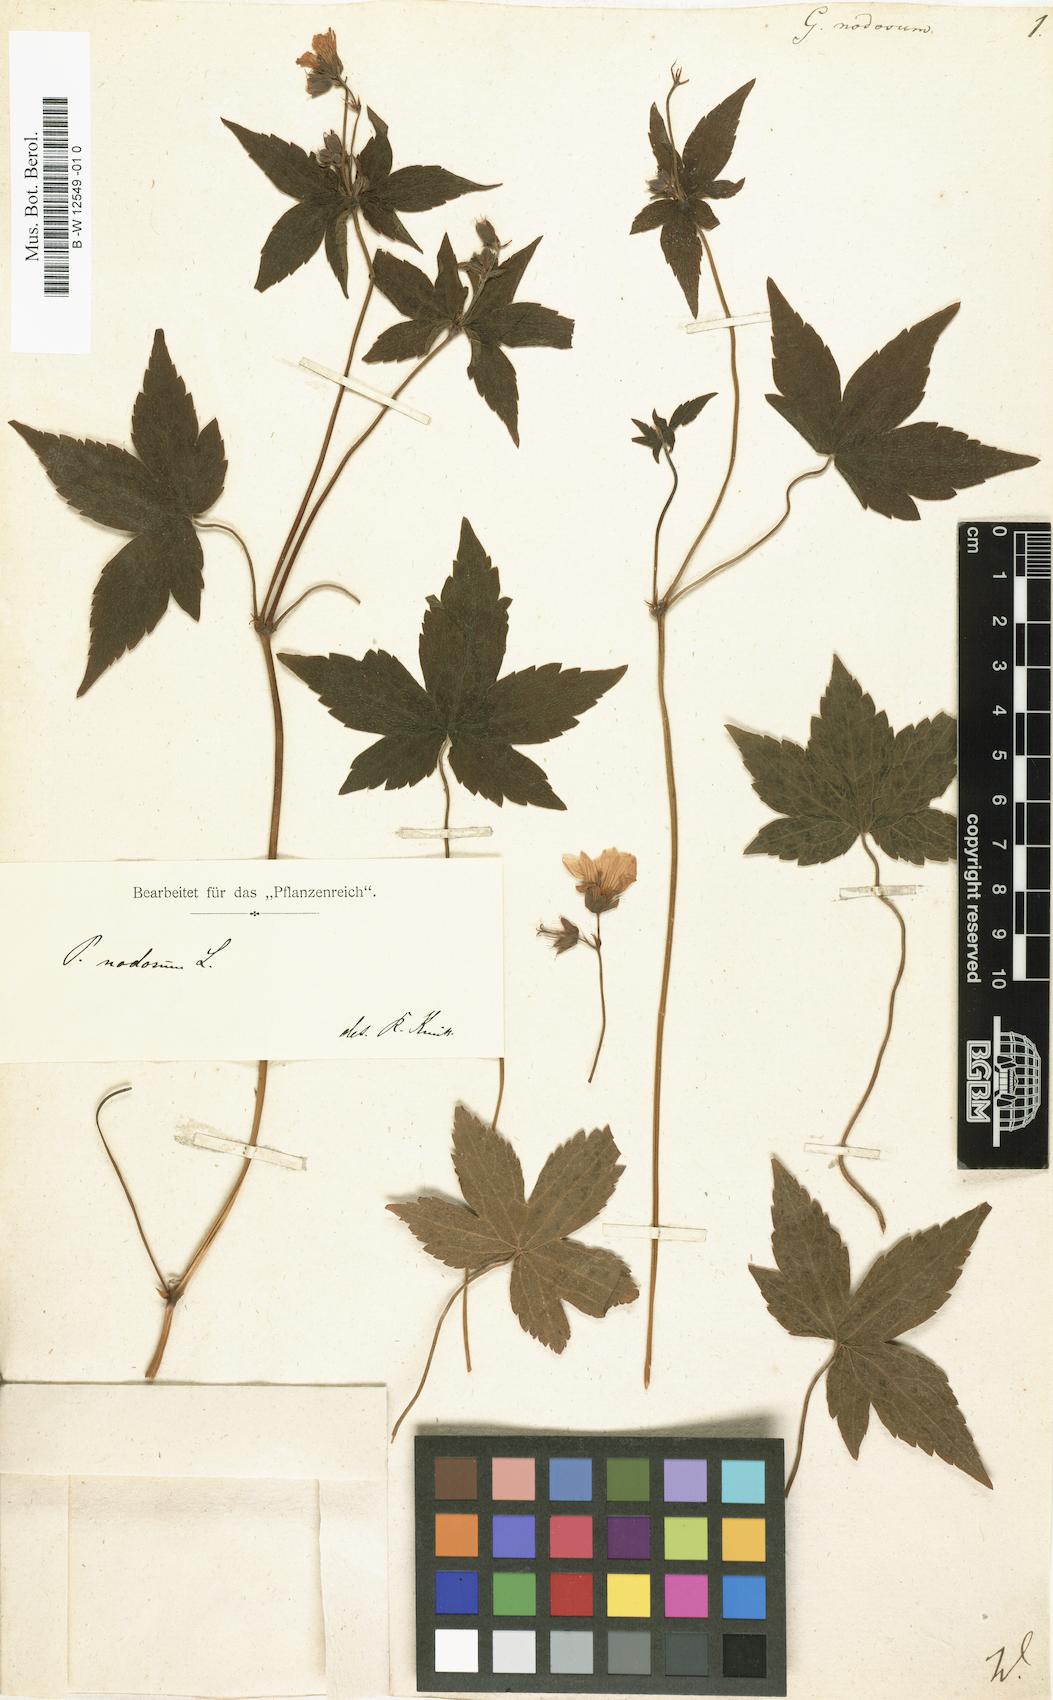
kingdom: Plantae
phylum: Tracheophyta
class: Magnoliopsida
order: Geraniales
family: Geraniaceae
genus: Geranium
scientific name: Geranium nodosum
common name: Knotted crane's-bill
